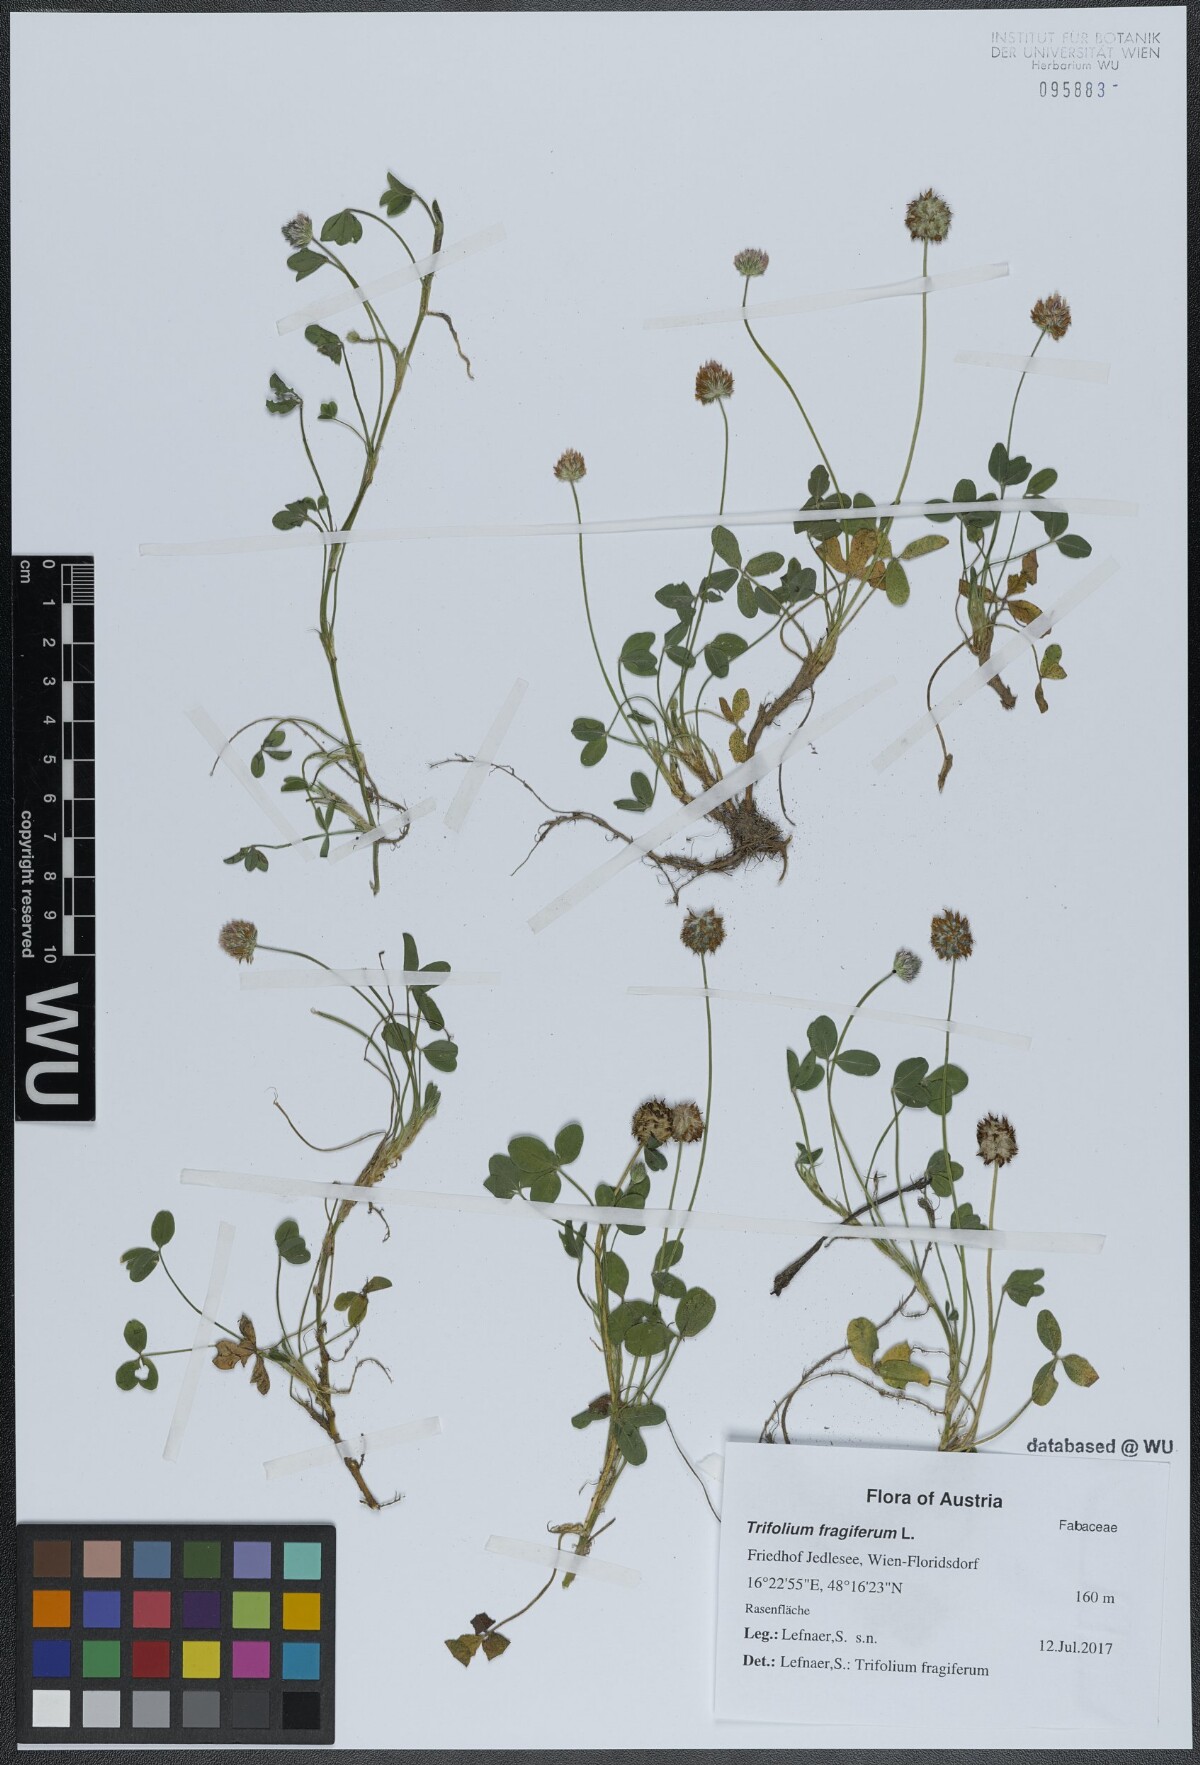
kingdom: Plantae
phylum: Tracheophyta
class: Magnoliopsida
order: Fabales
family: Fabaceae
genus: Trifolium
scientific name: Trifolium fragiferum
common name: Strawberry clover
